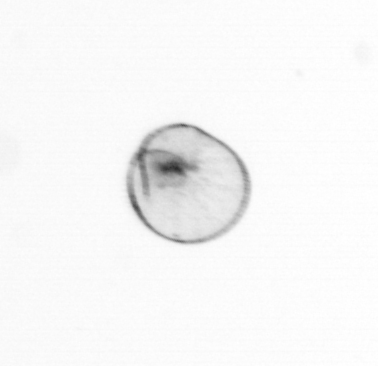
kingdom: Chromista
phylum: Myzozoa
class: Dinophyceae
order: Noctilucales
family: Noctilucaceae
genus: Noctiluca
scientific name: Noctiluca scintillans
